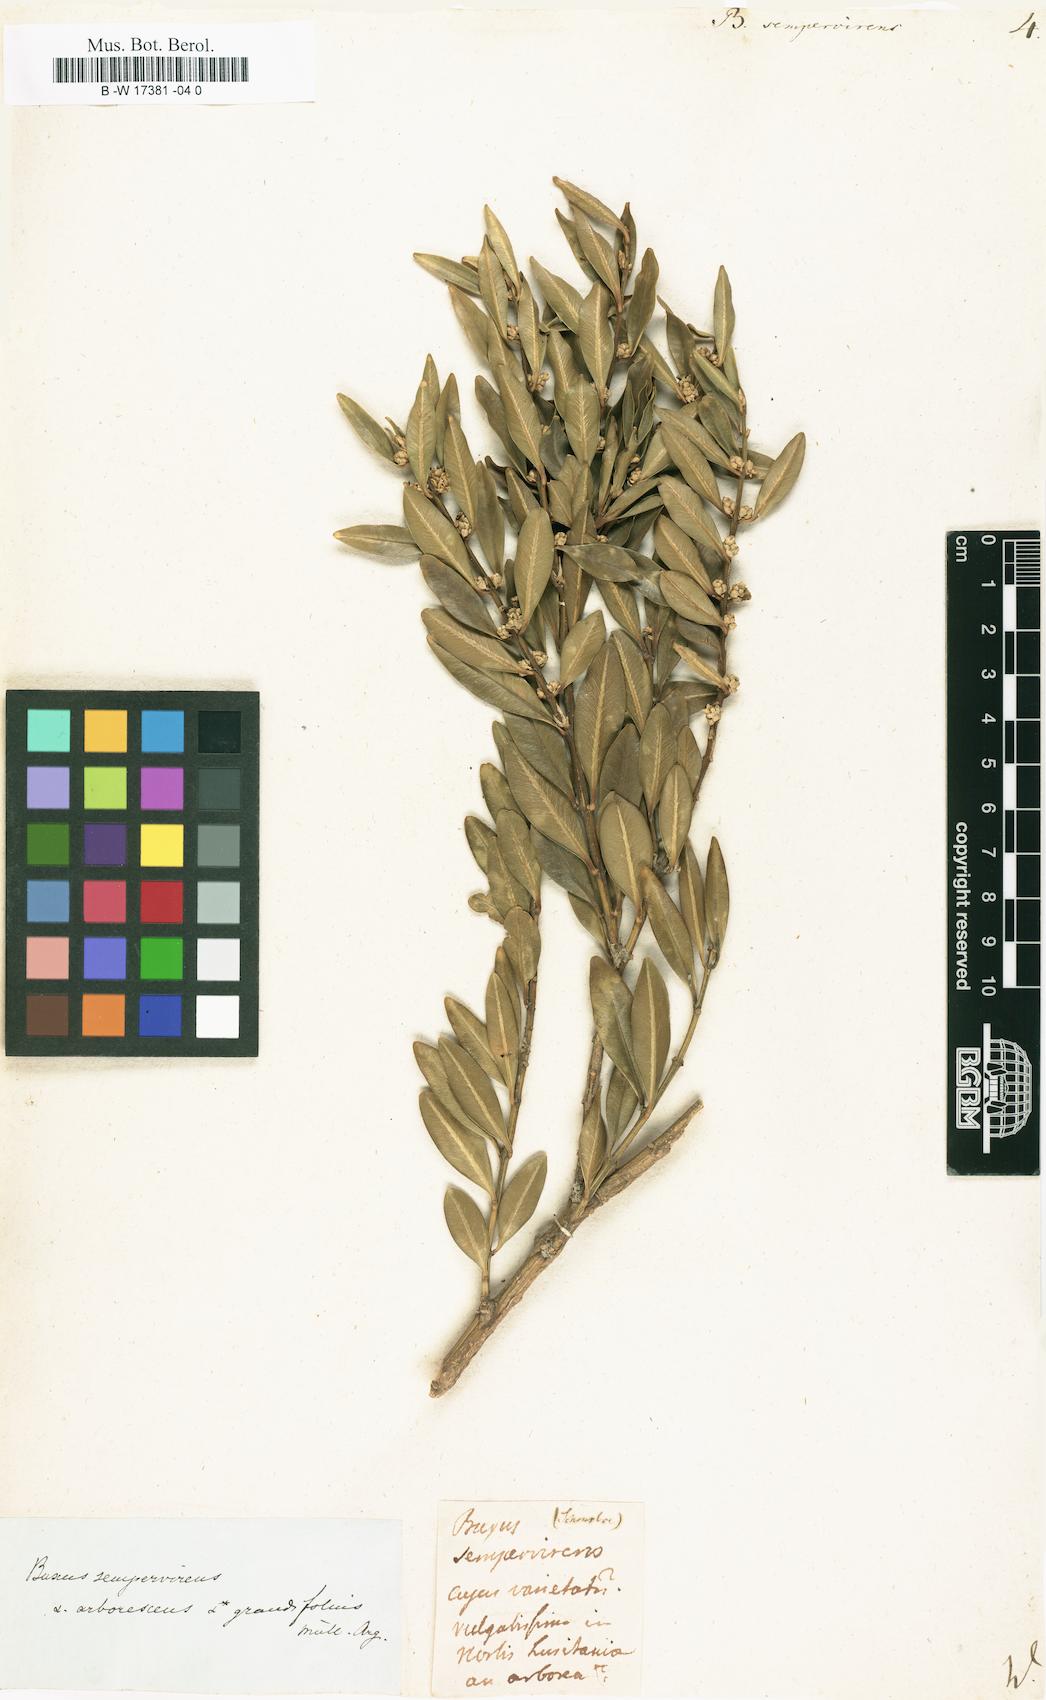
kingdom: Plantae
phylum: Tracheophyta
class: Magnoliopsida
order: Buxales
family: Buxaceae
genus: Buxus
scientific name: Buxus sempervirens
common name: Box
